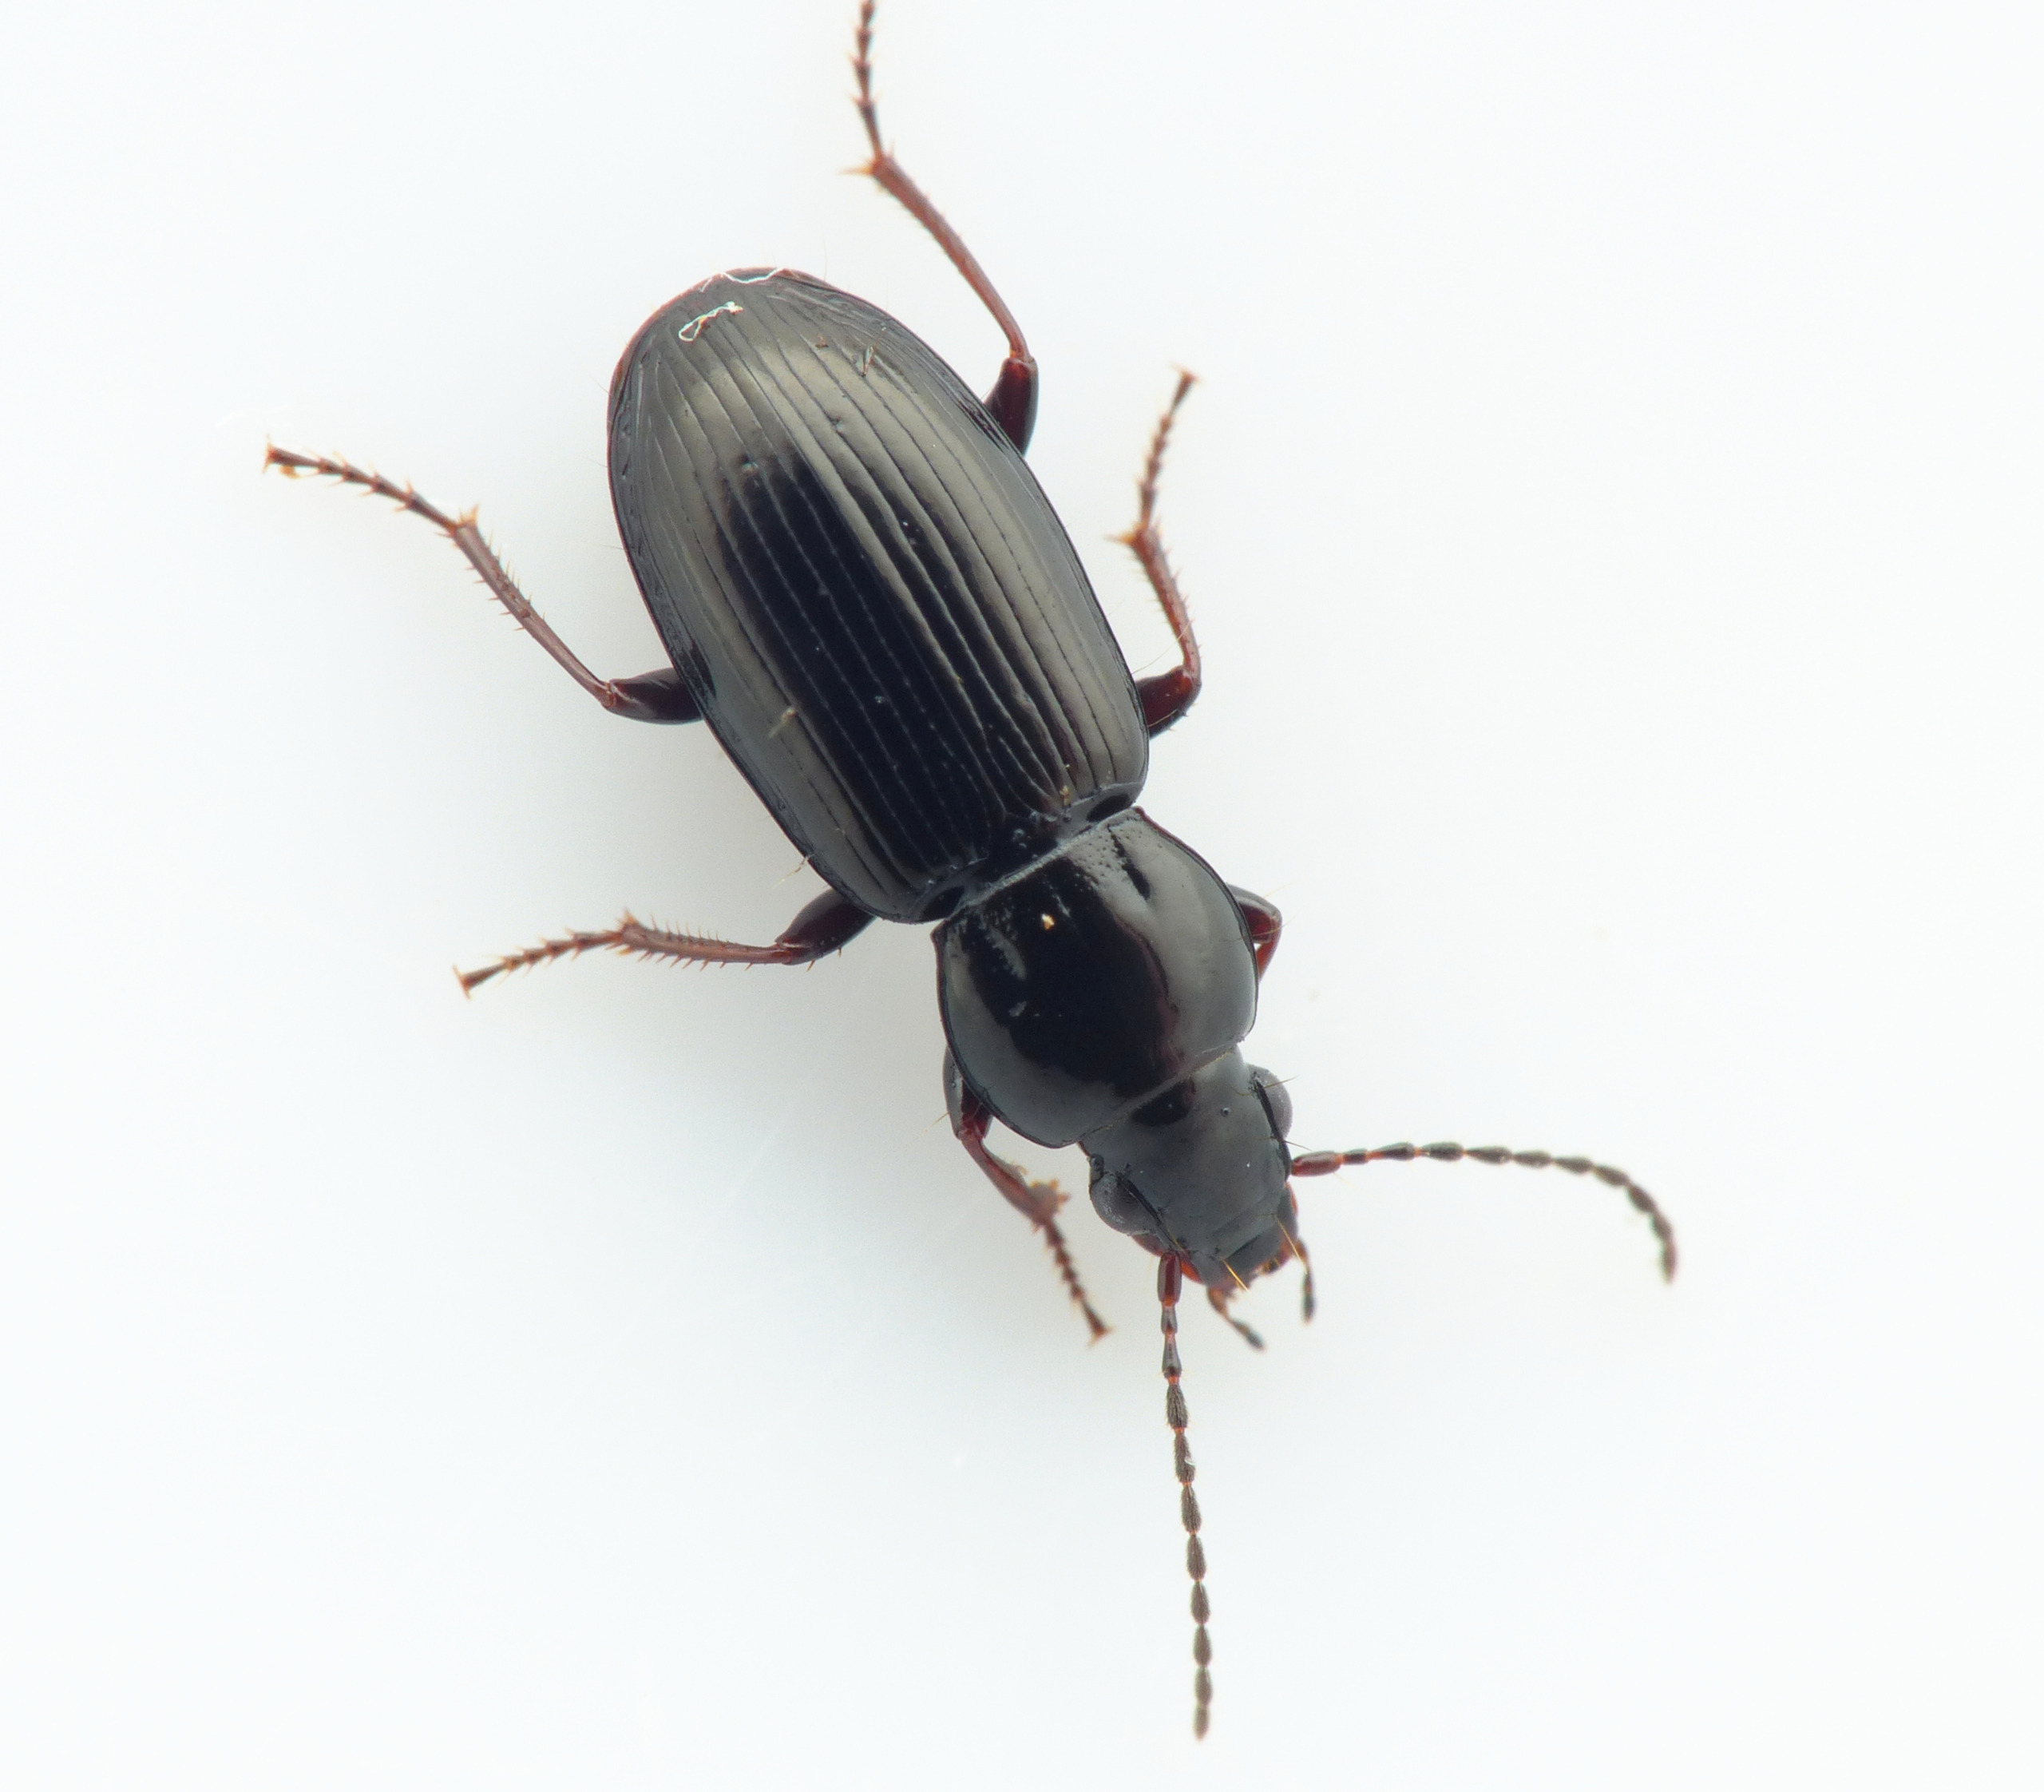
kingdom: Animalia
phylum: Arthropoda
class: Insecta
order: Coleoptera
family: Carabidae
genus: Pterostichus
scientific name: Pterostichus diligens
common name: Brunbenet jordløber
